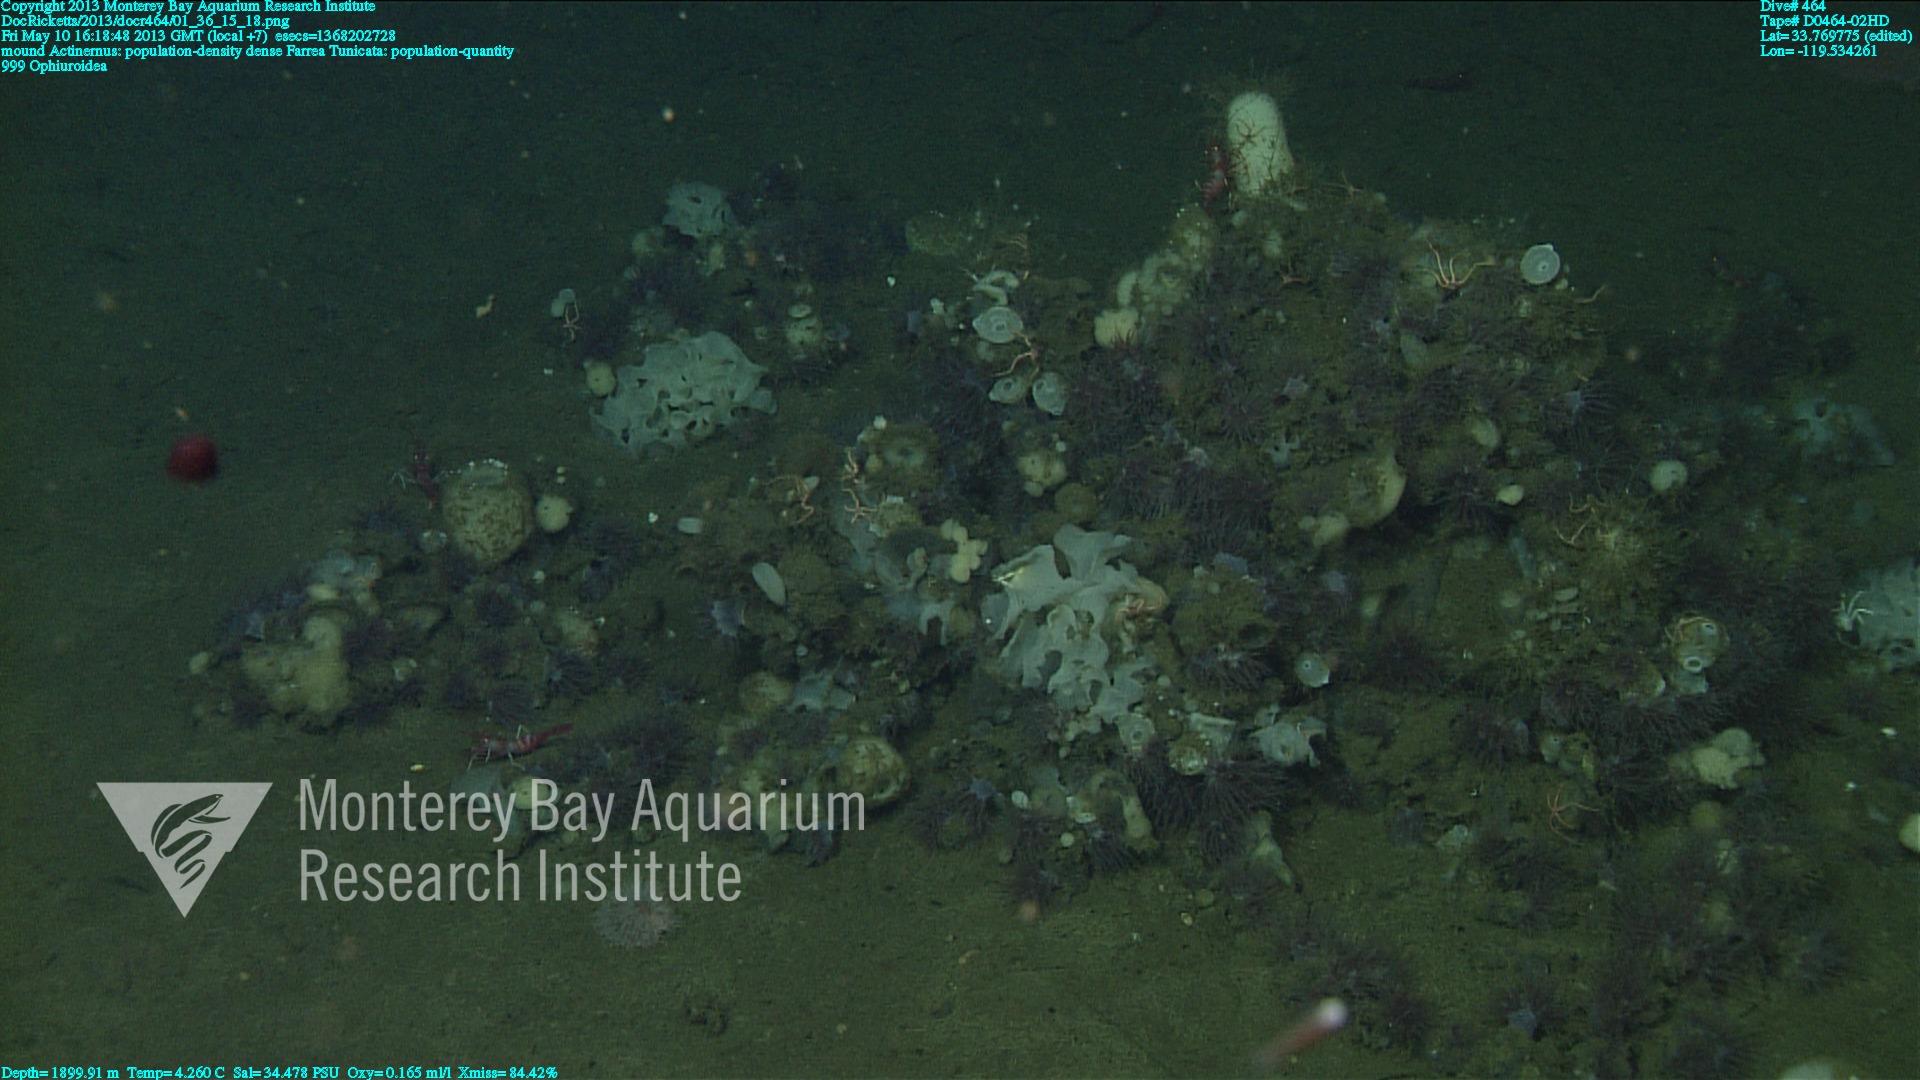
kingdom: Animalia
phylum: Porifera
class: Hexactinellida
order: Sceptrulophora
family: Farreidae
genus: Farrea
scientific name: Farrea
